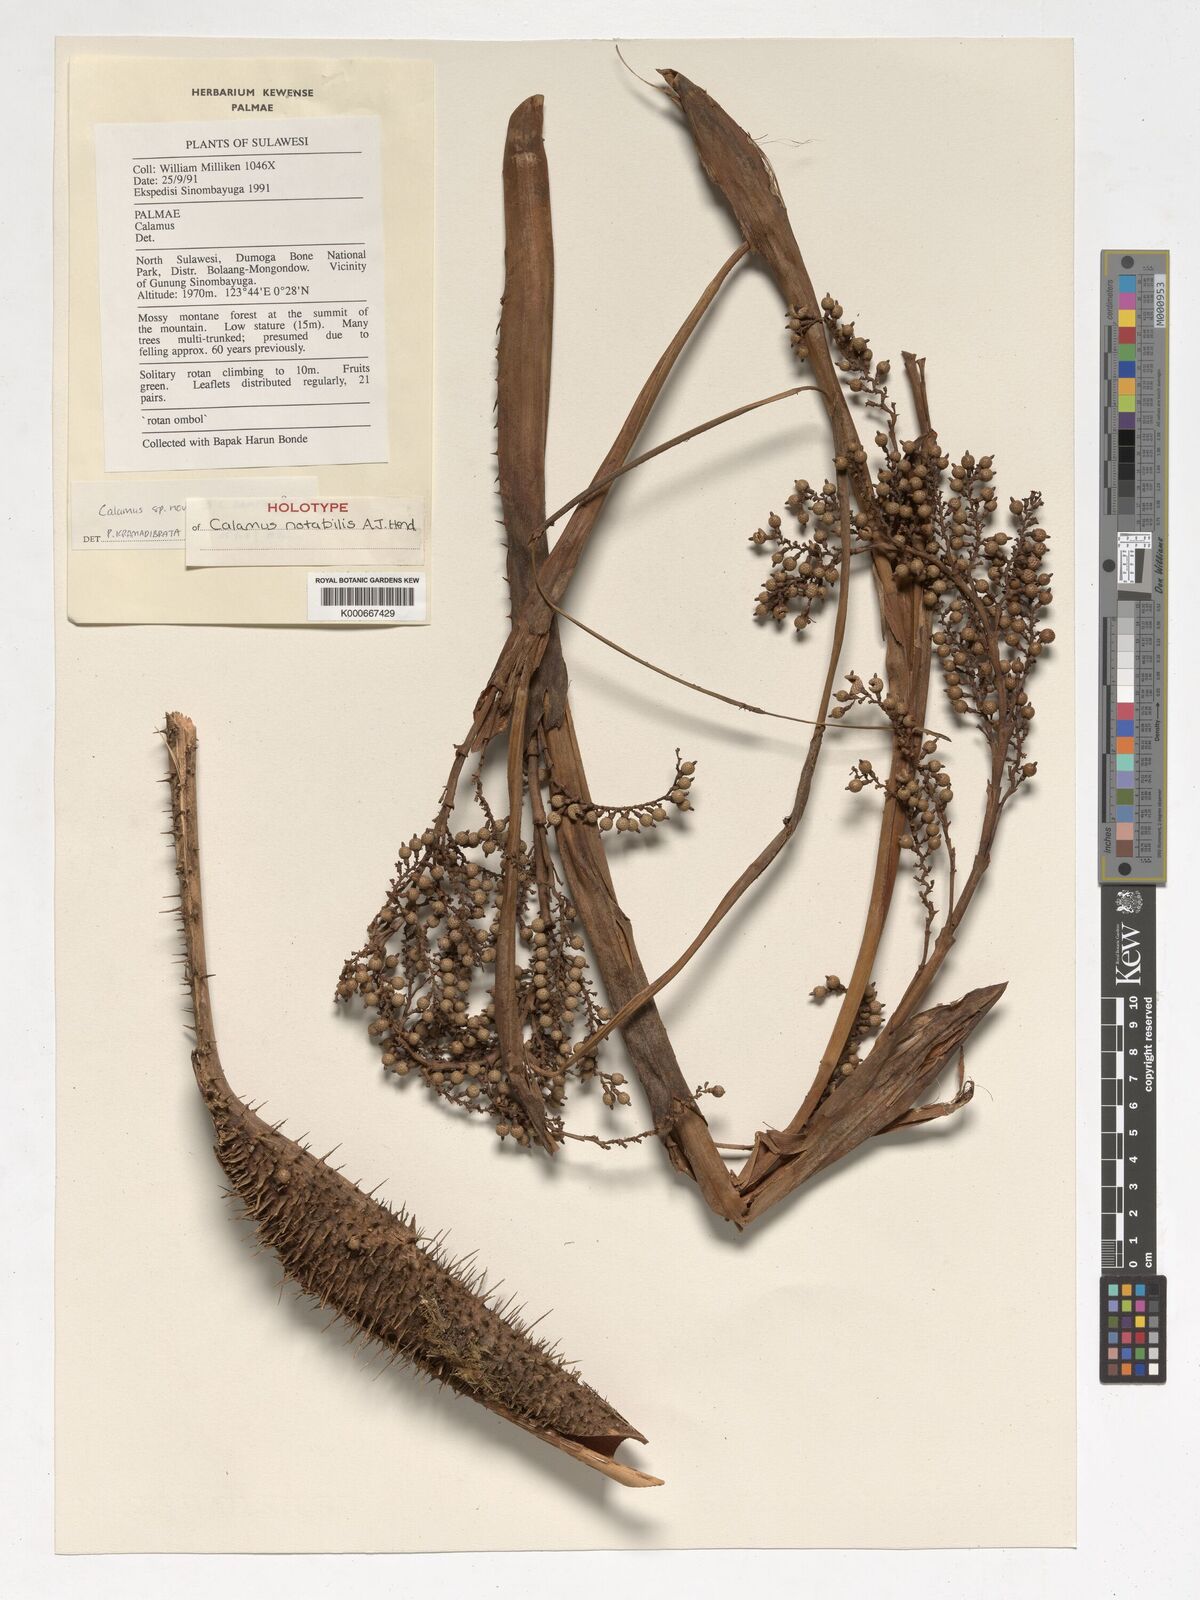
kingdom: Plantae
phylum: Tracheophyta
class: Liliopsida
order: Arecales
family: Arecaceae
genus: Calamus
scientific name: Calamus
